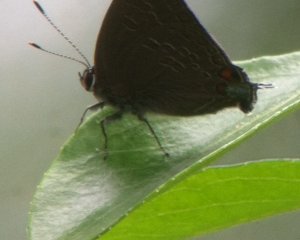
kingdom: Animalia
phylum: Arthropoda
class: Insecta
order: Lepidoptera
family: Lycaenidae
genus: Strymon
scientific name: Strymon kingi
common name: King's Hairstreak
